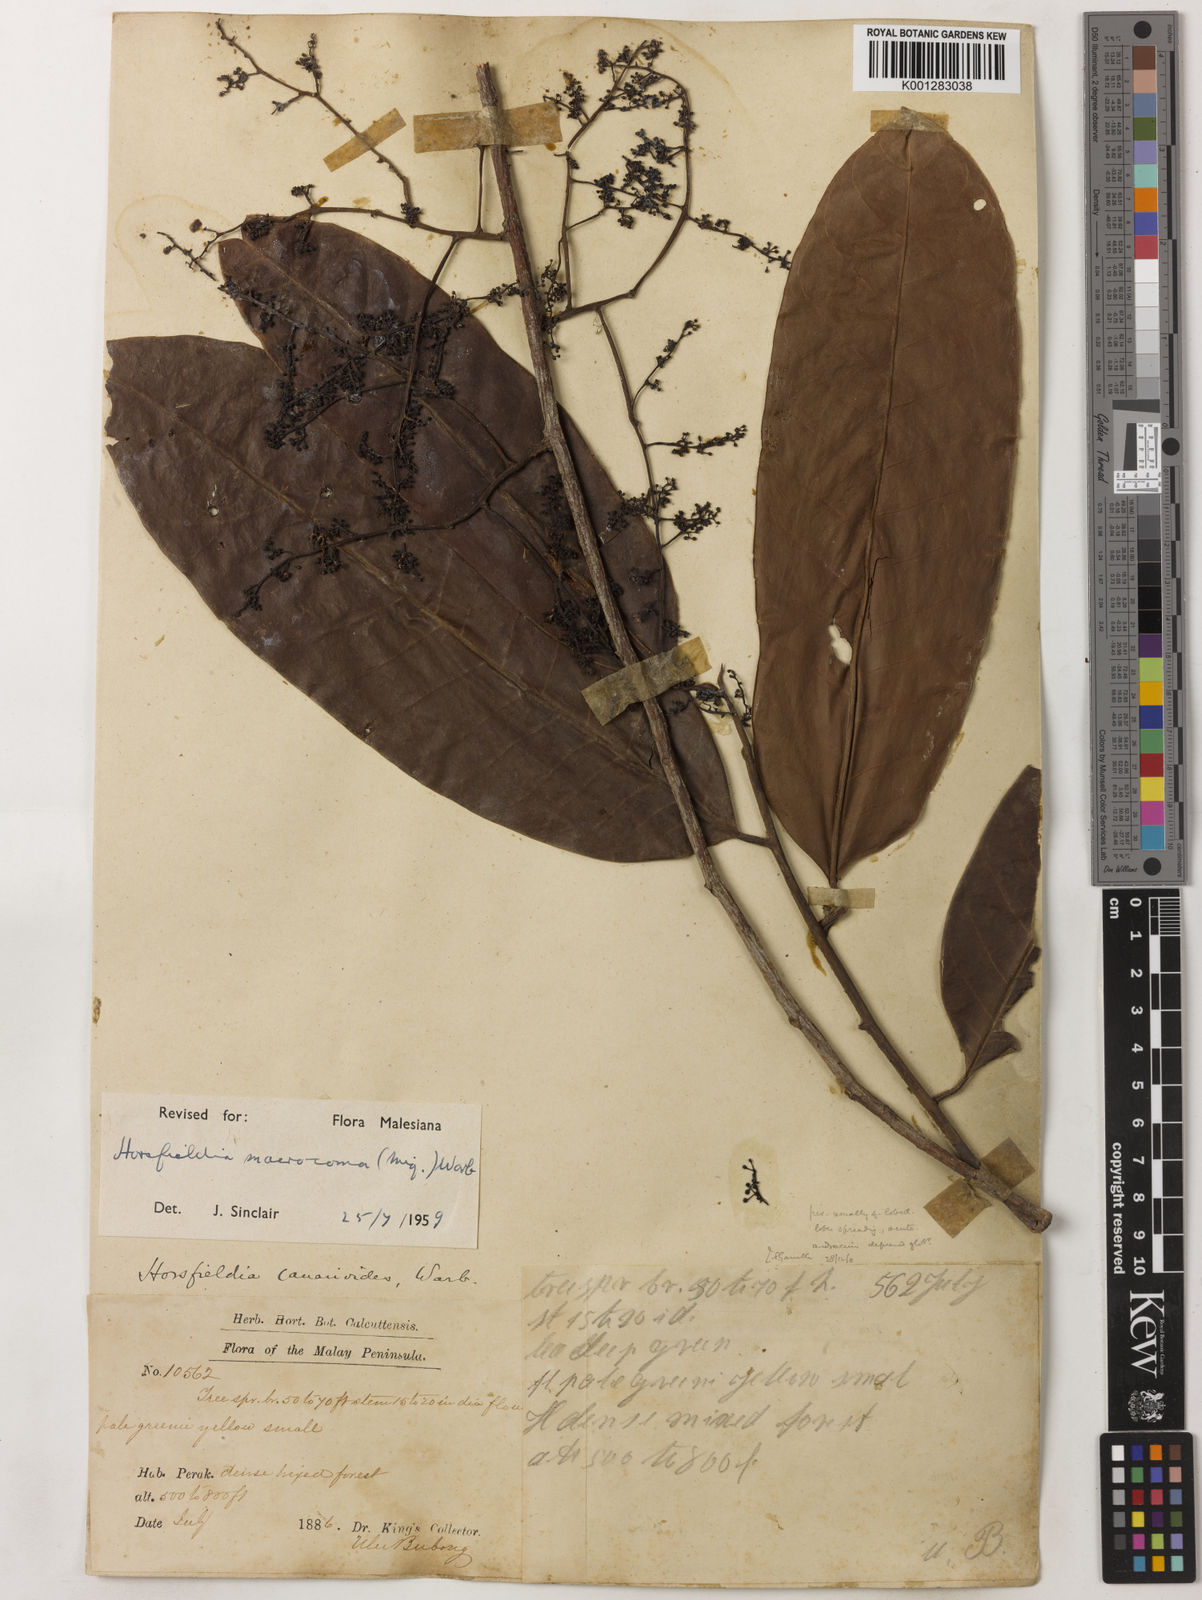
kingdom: Plantae
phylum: Tracheophyta
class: Magnoliopsida
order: Magnoliales
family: Myristicaceae
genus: Endocomia
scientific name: Endocomia canarioides
